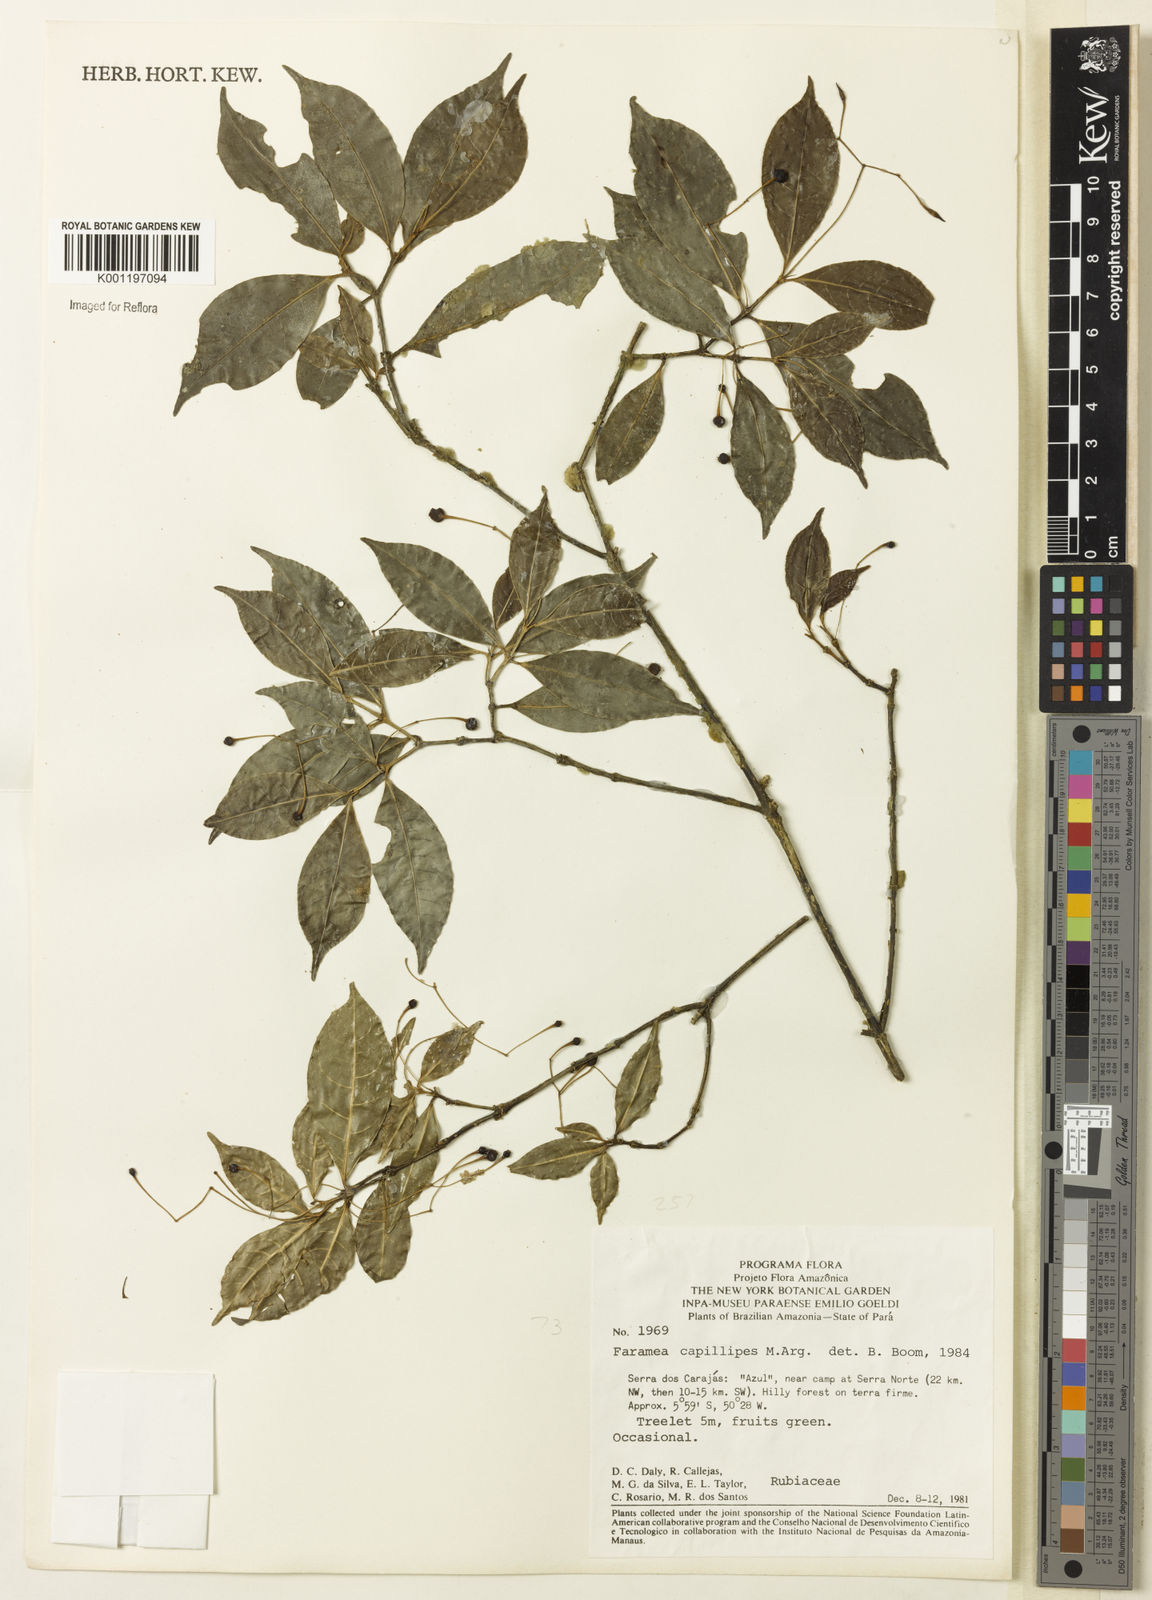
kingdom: Plantae
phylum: Tracheophyta
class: Magnoliopsida
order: Gentianales
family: Rubiaceae
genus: Faramea
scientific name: Faramea
